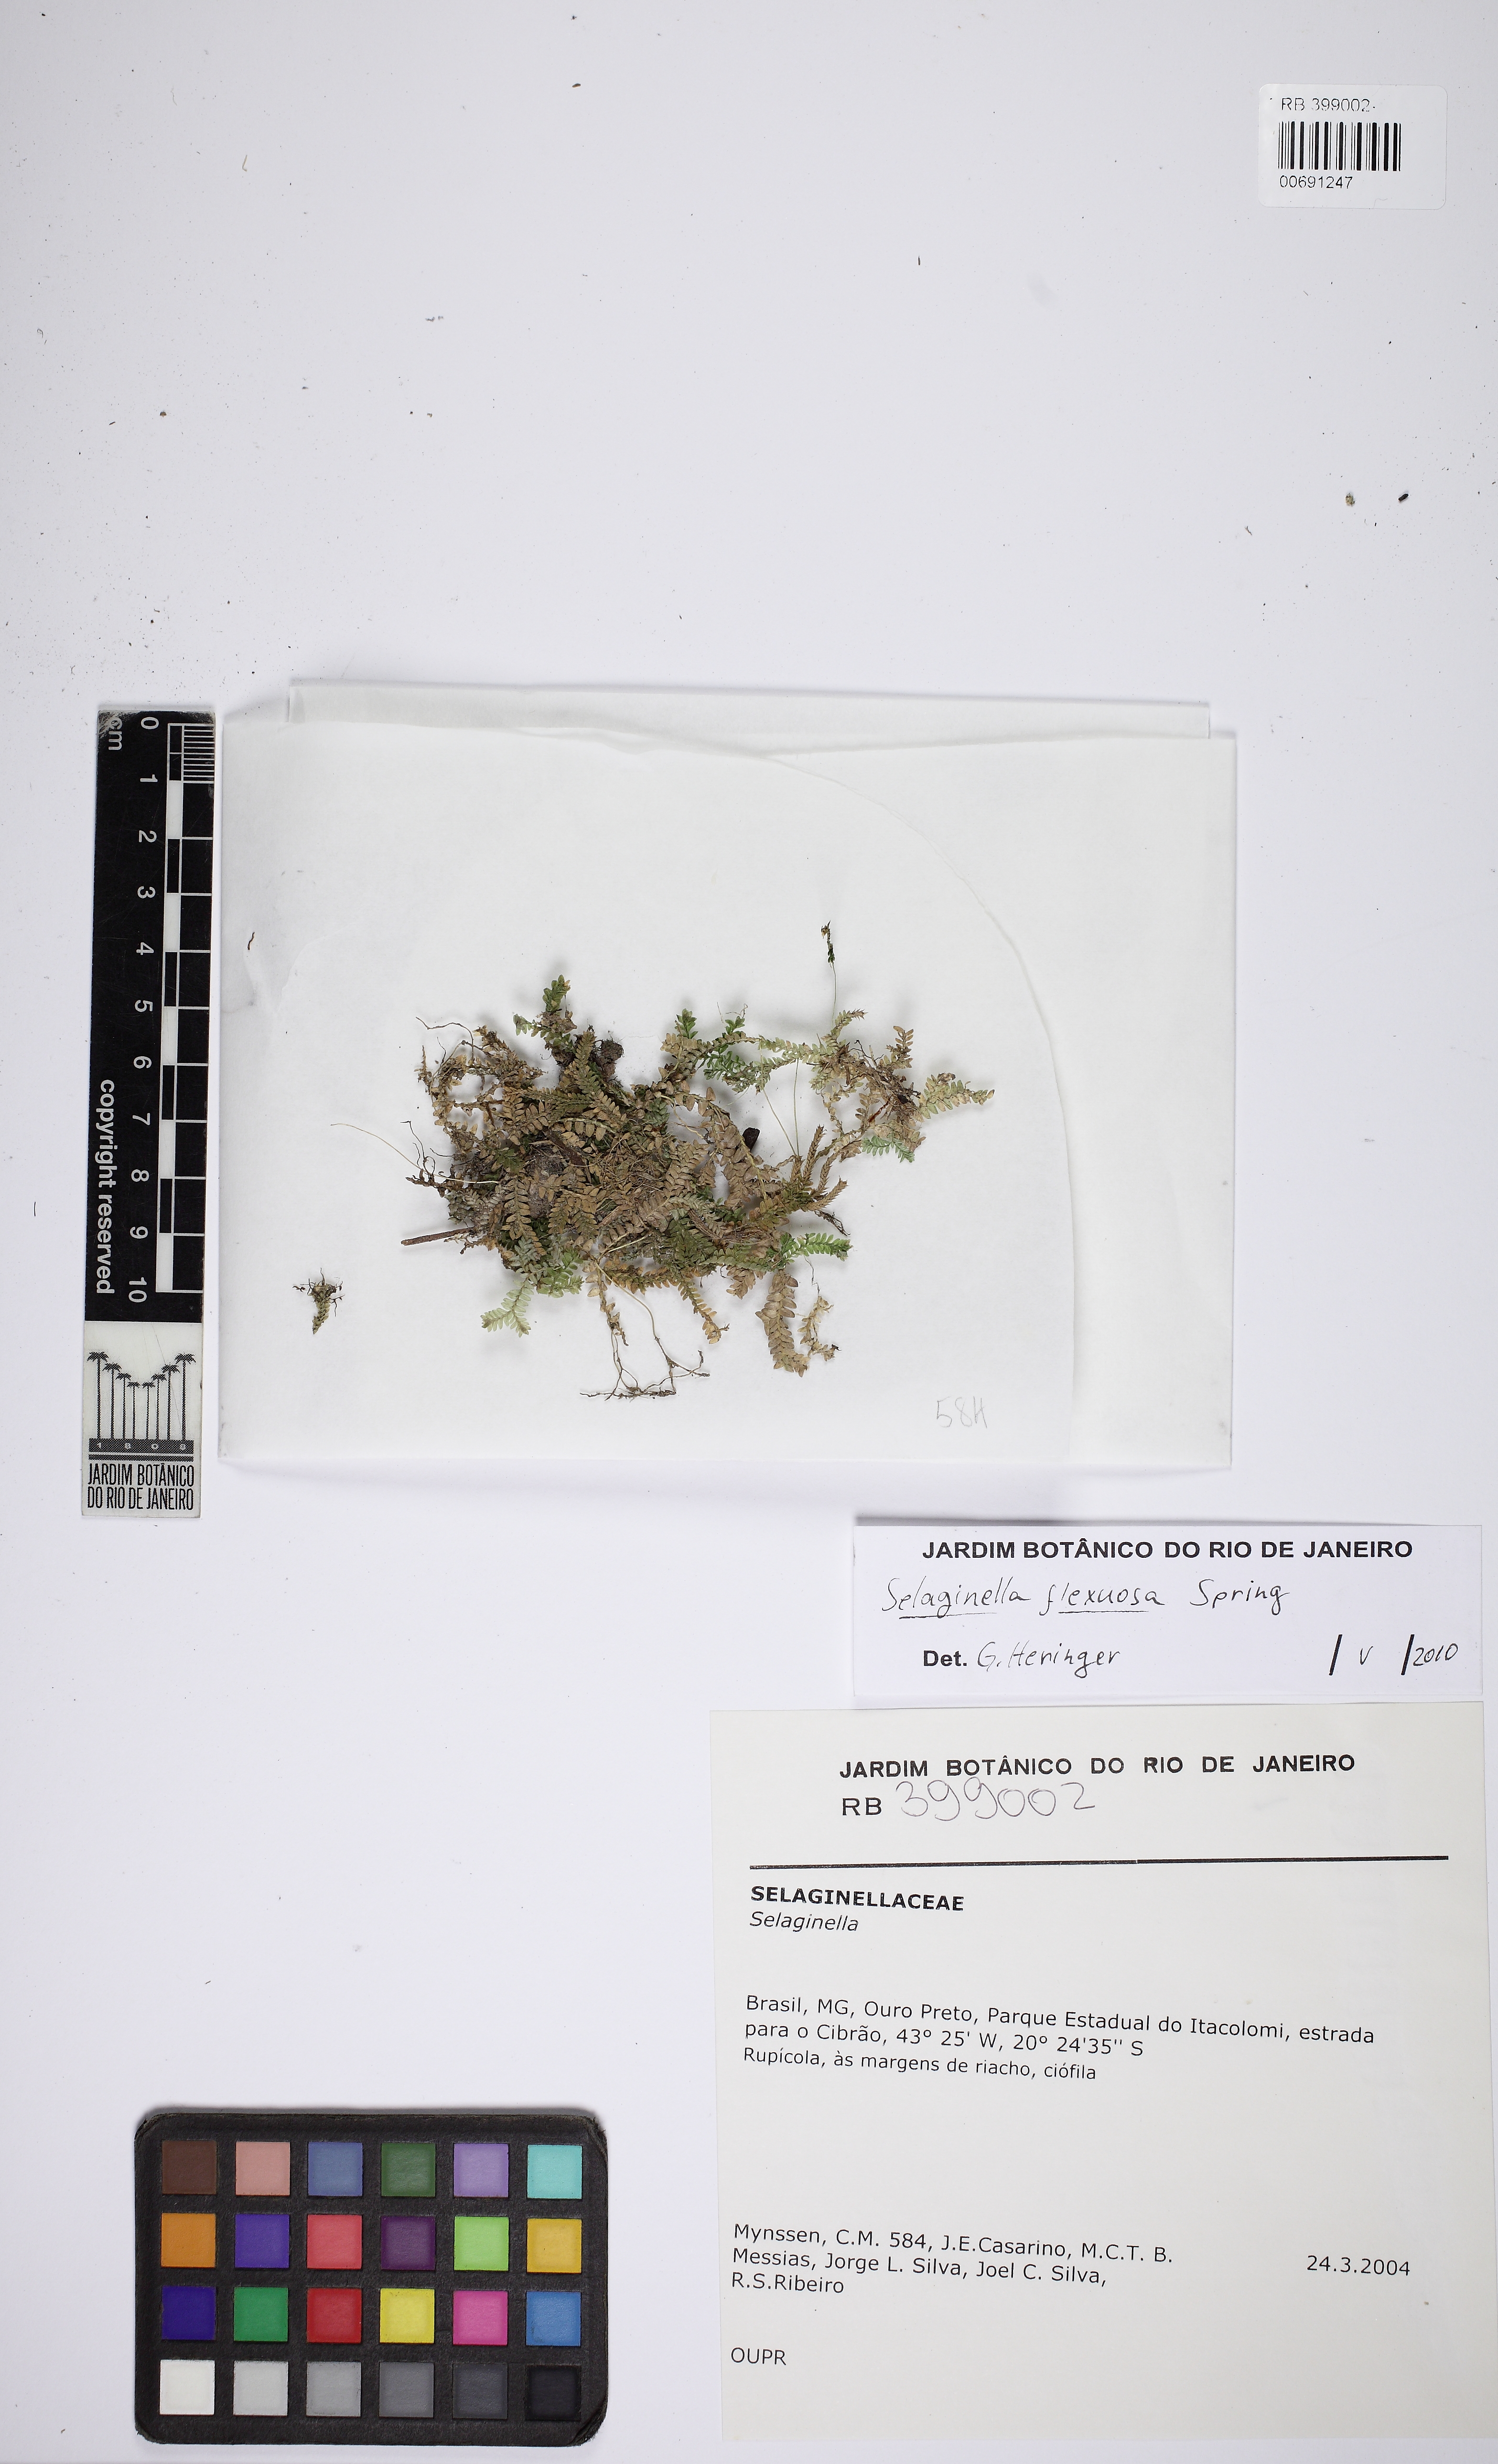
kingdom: Plantae
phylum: Tracheophyta
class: Lycopodiopsida
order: Selaginellales
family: Selaginellaceae
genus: Selaginella
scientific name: Selaginella flexuosa
